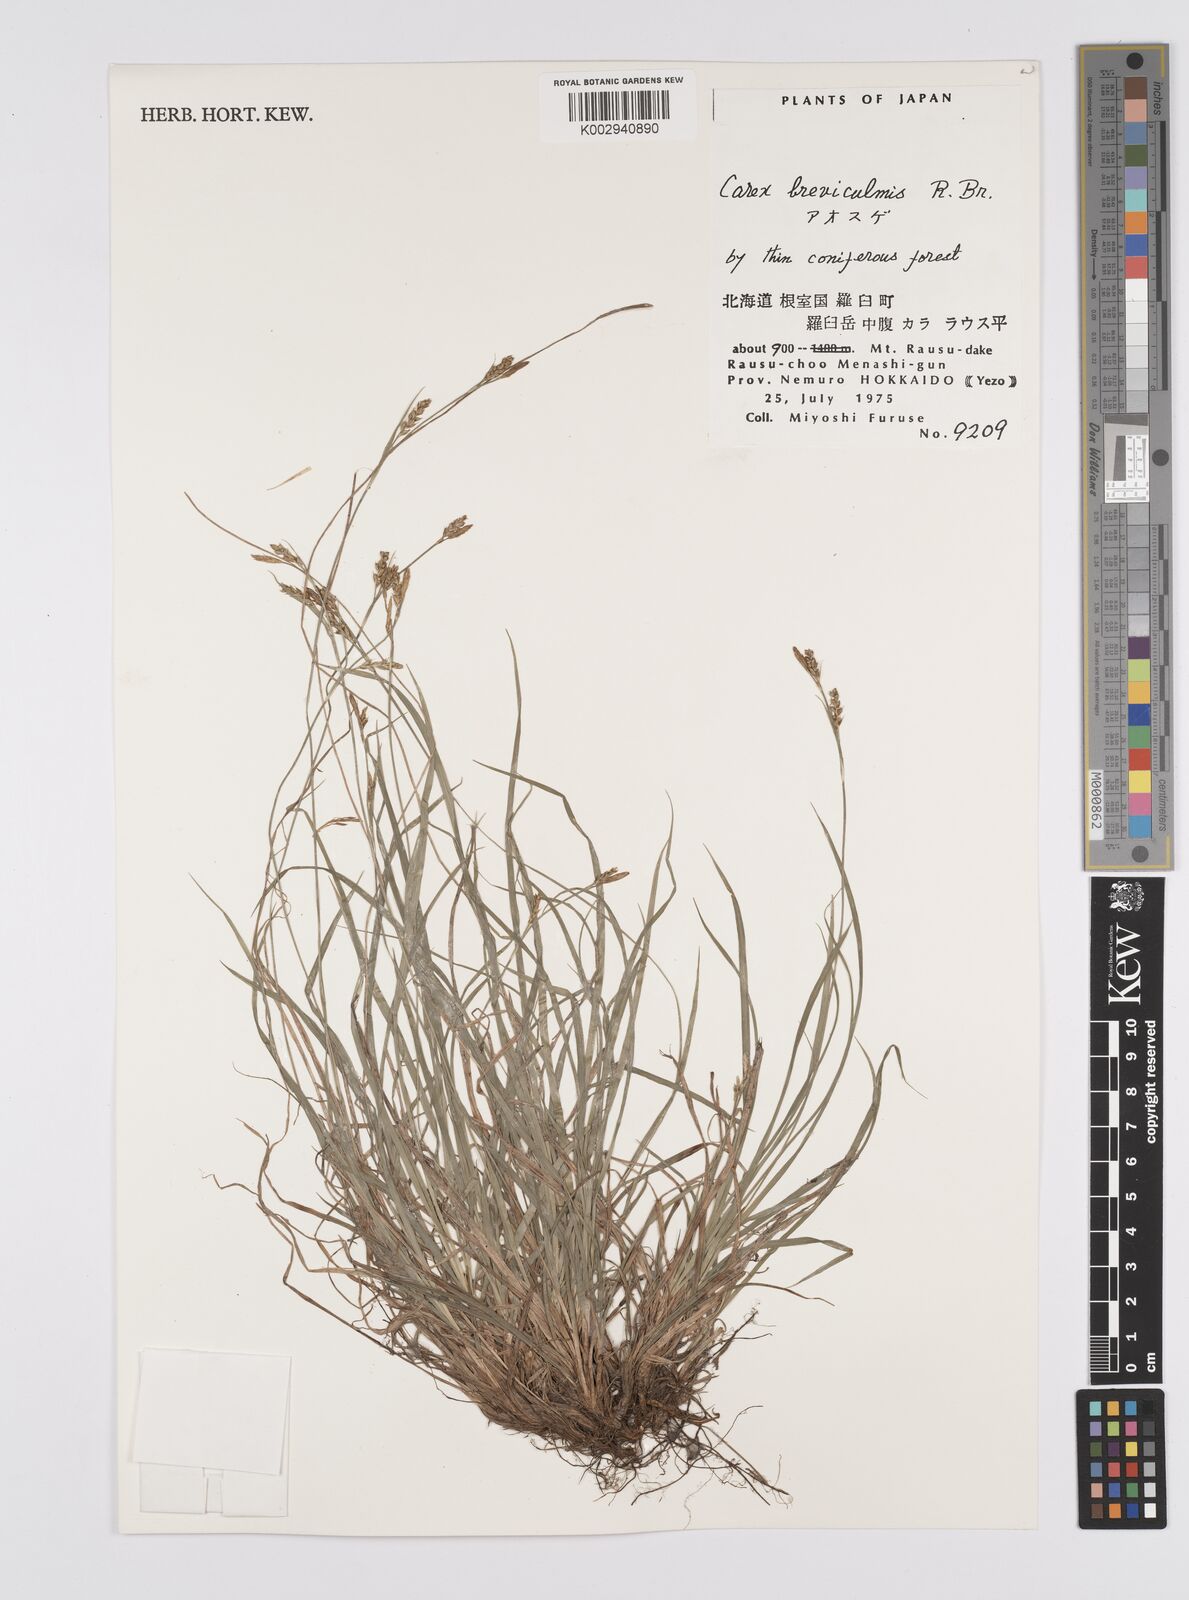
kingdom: Plantae
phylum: Tracheophyta
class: Liliopsida
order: Poales
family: Cyperaceae
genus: Carex
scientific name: Carex breviculmis
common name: Asian shortstem sedge
